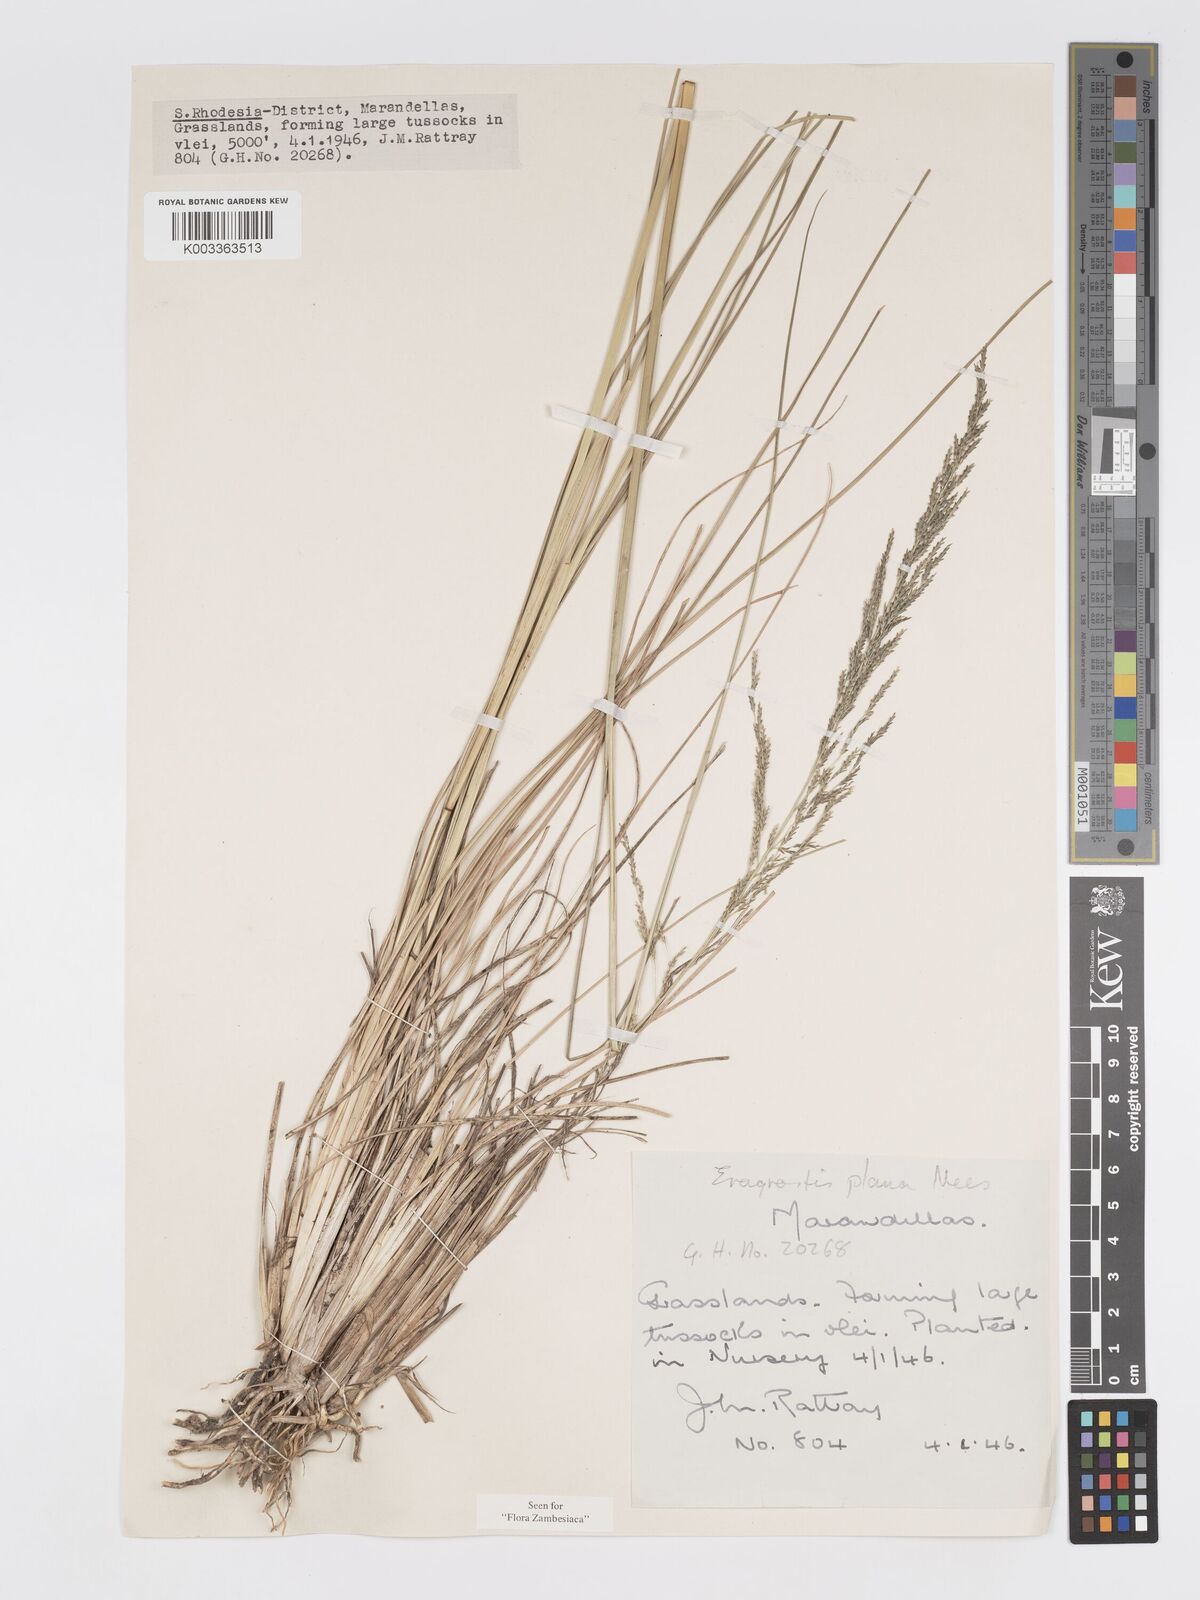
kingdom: Plantae
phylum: Tracheophyta
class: Liliopsida
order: Poales
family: Poaceae
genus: Eragrostis
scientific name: Eragrostis plana
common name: South african lovegrass
